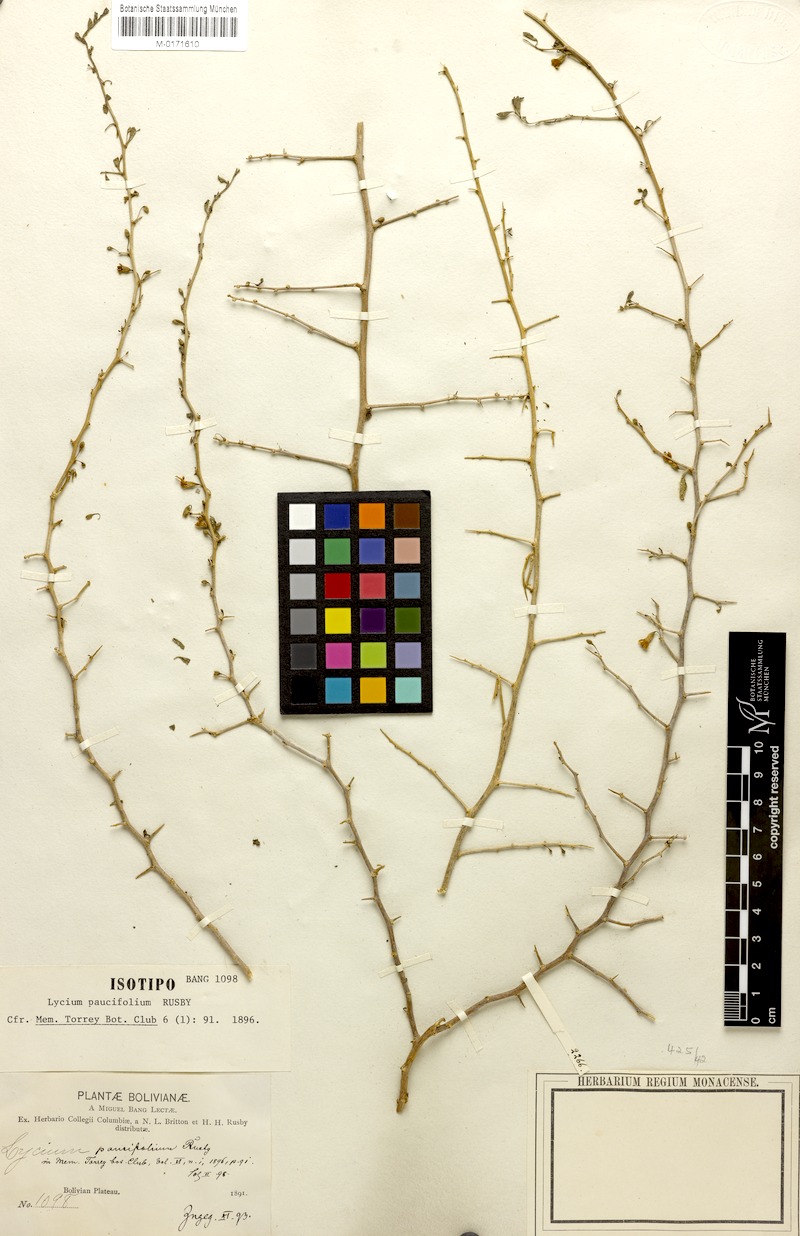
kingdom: Plantae
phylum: Tracheophyta
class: Magnoliopsida
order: Solanales
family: Solanaceae
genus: Lycium
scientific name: Lycium infaustum
